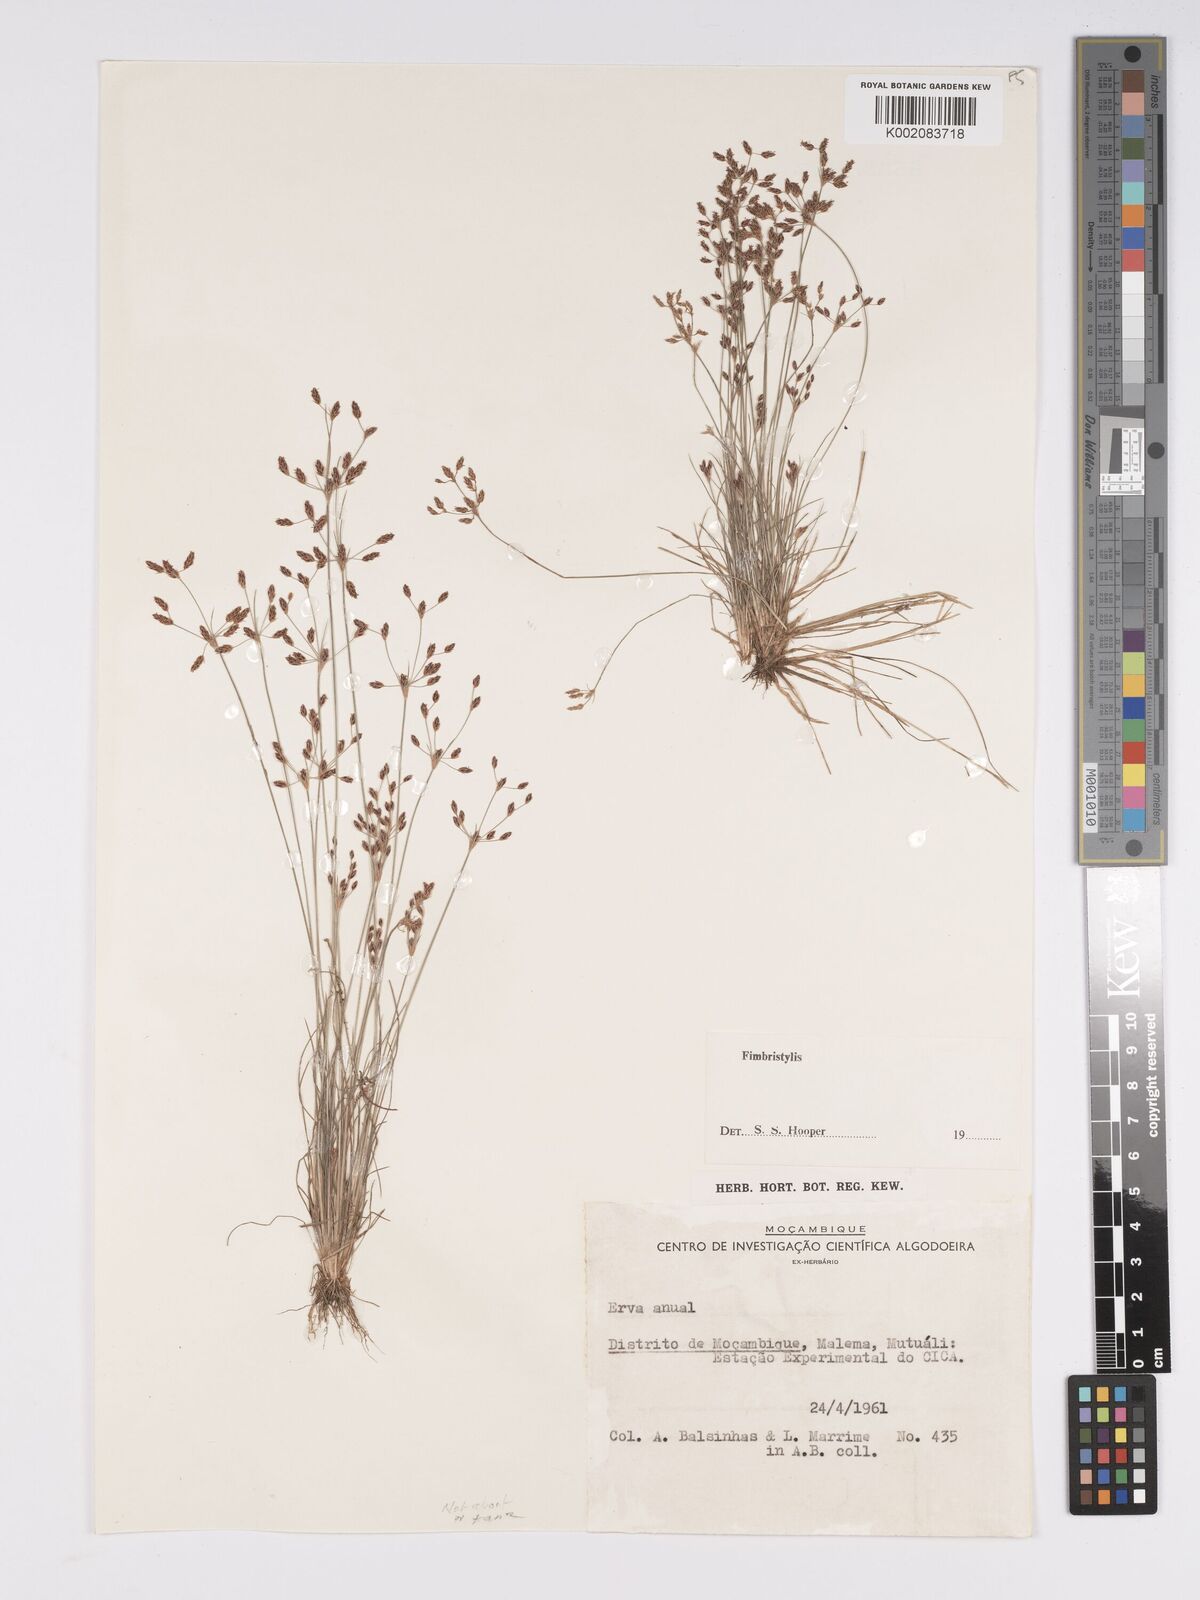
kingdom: Plantae
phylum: Tracheophyta
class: Liliopsida
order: Poales
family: Cyperaceae
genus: Bulbostylis
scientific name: Bulbostylis abortiva
